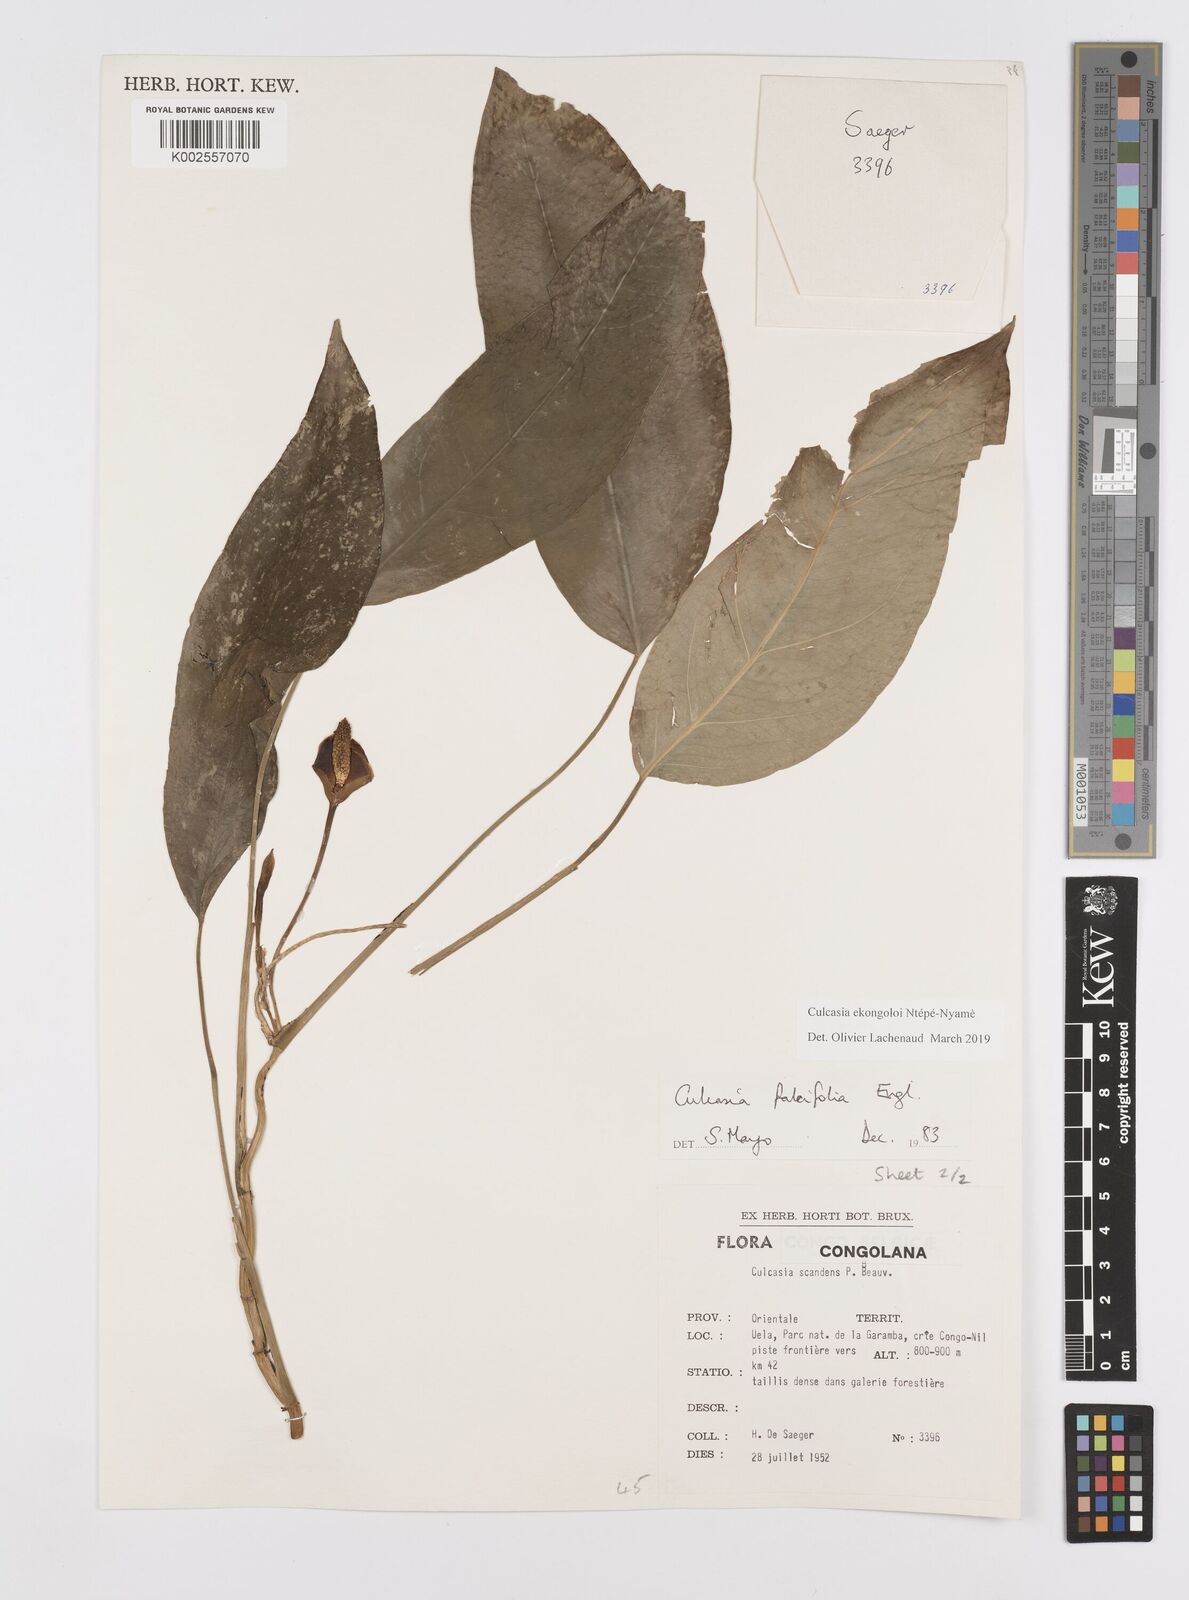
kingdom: Plantae
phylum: Tracheophyta
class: Liliopsida
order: Alismatales
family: Araceae
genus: Culcasia
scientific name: Culcasia ekongoloi
